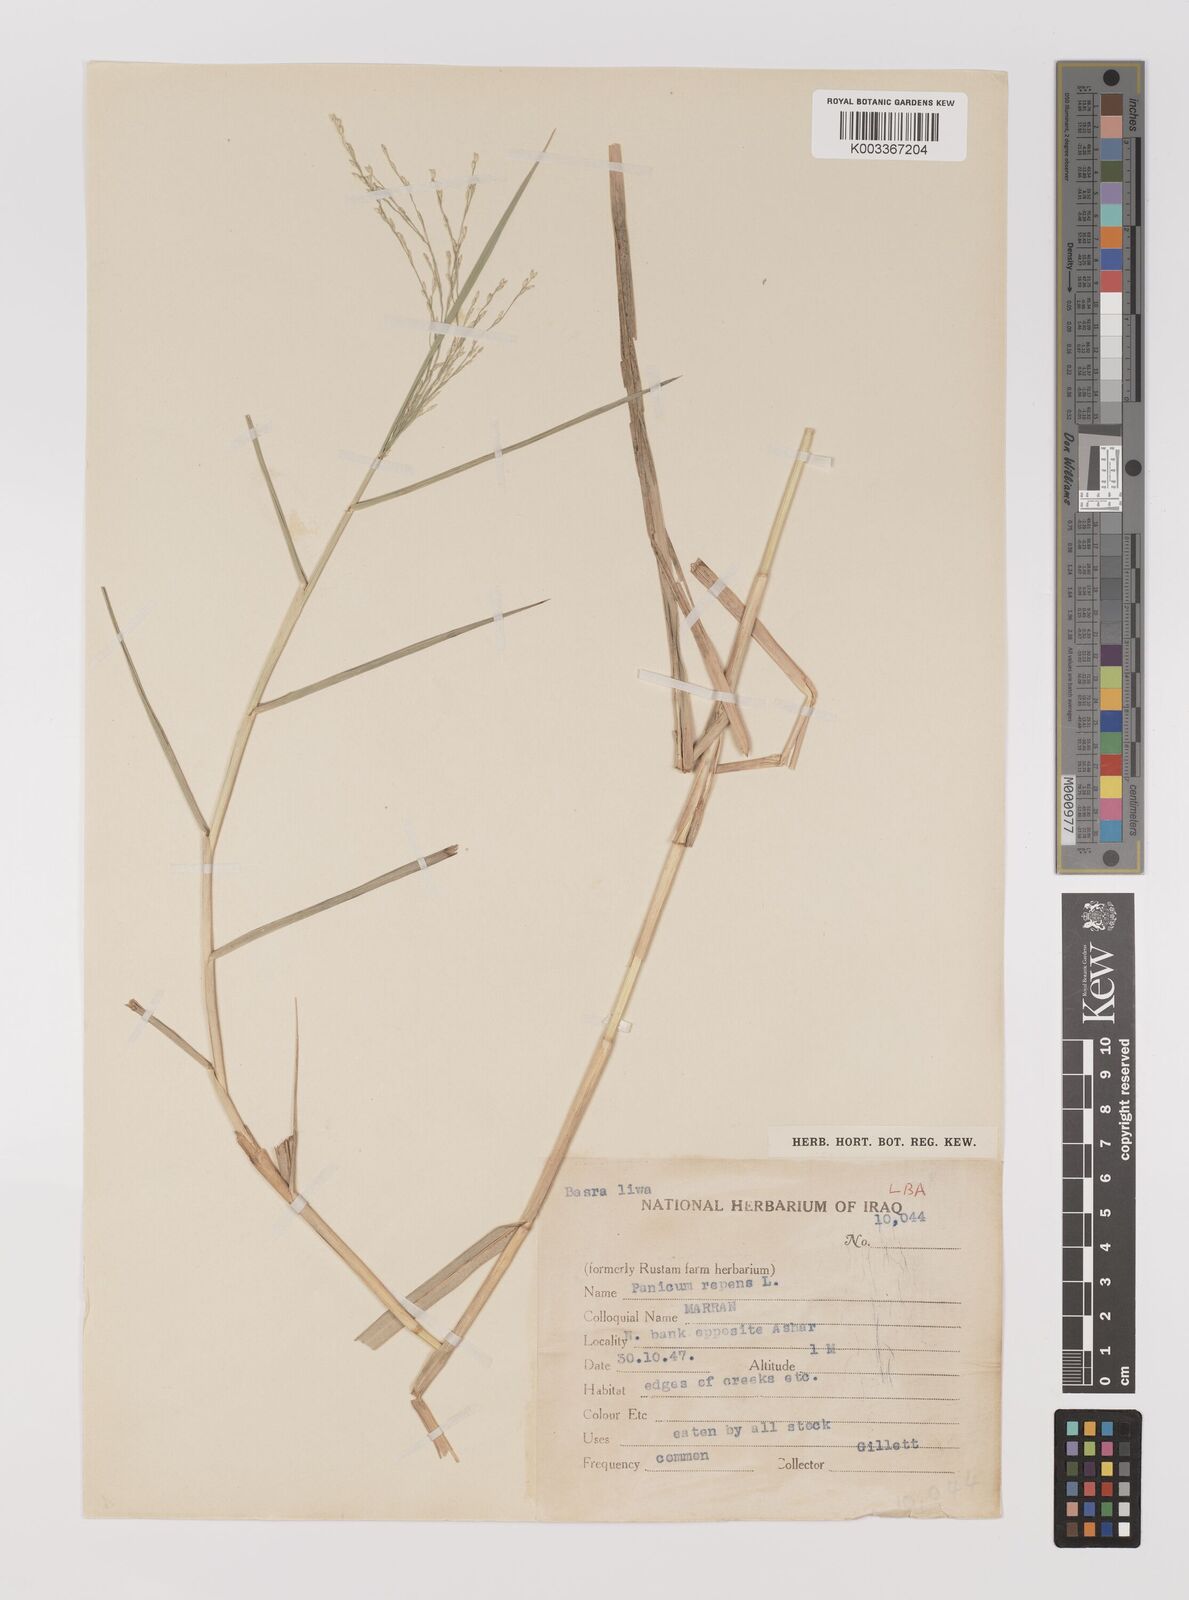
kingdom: Plantae
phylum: Tracheophyta
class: Liliopsida
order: Poales
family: Poaceae
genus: Panicum
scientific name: Panicum repens
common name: Torpedo grass
